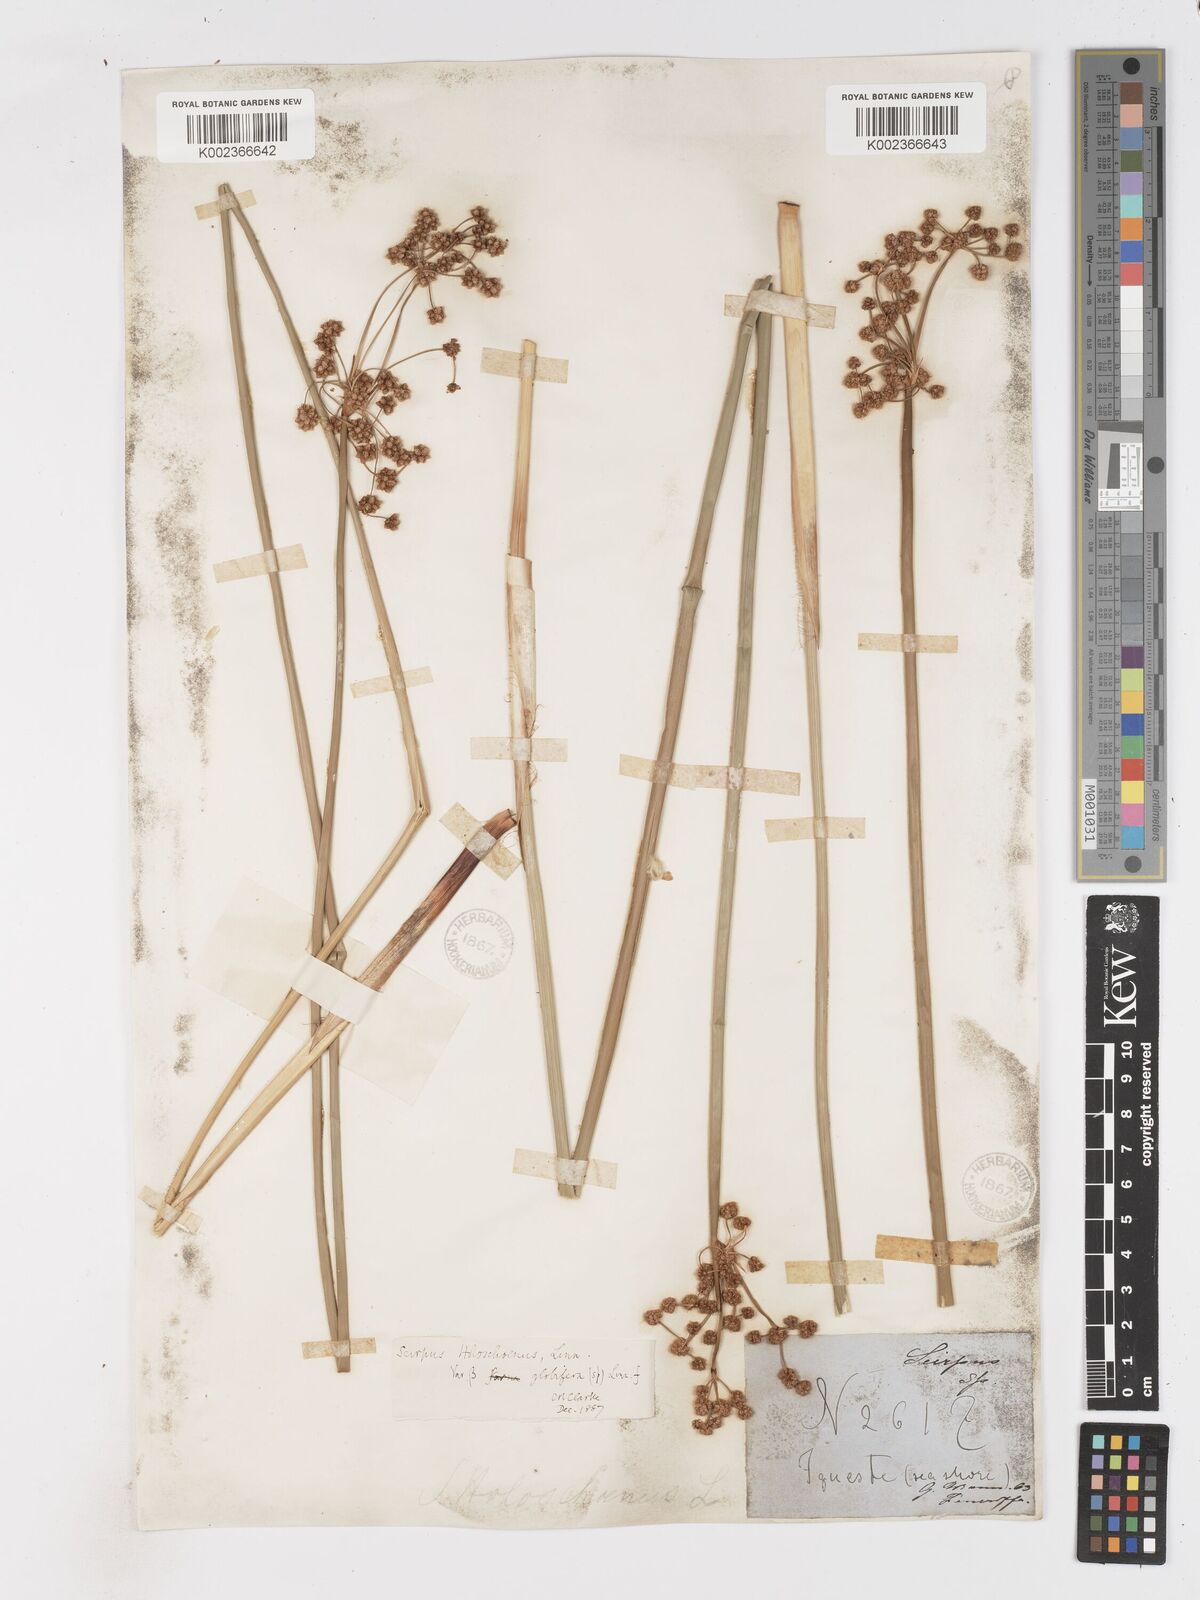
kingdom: Plantae
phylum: Tracheophyta
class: Liliopsida
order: Poales
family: Cyperaceae
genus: Scirpoides
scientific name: Scirpoides holoschoenus
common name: Round-headed club-rush
